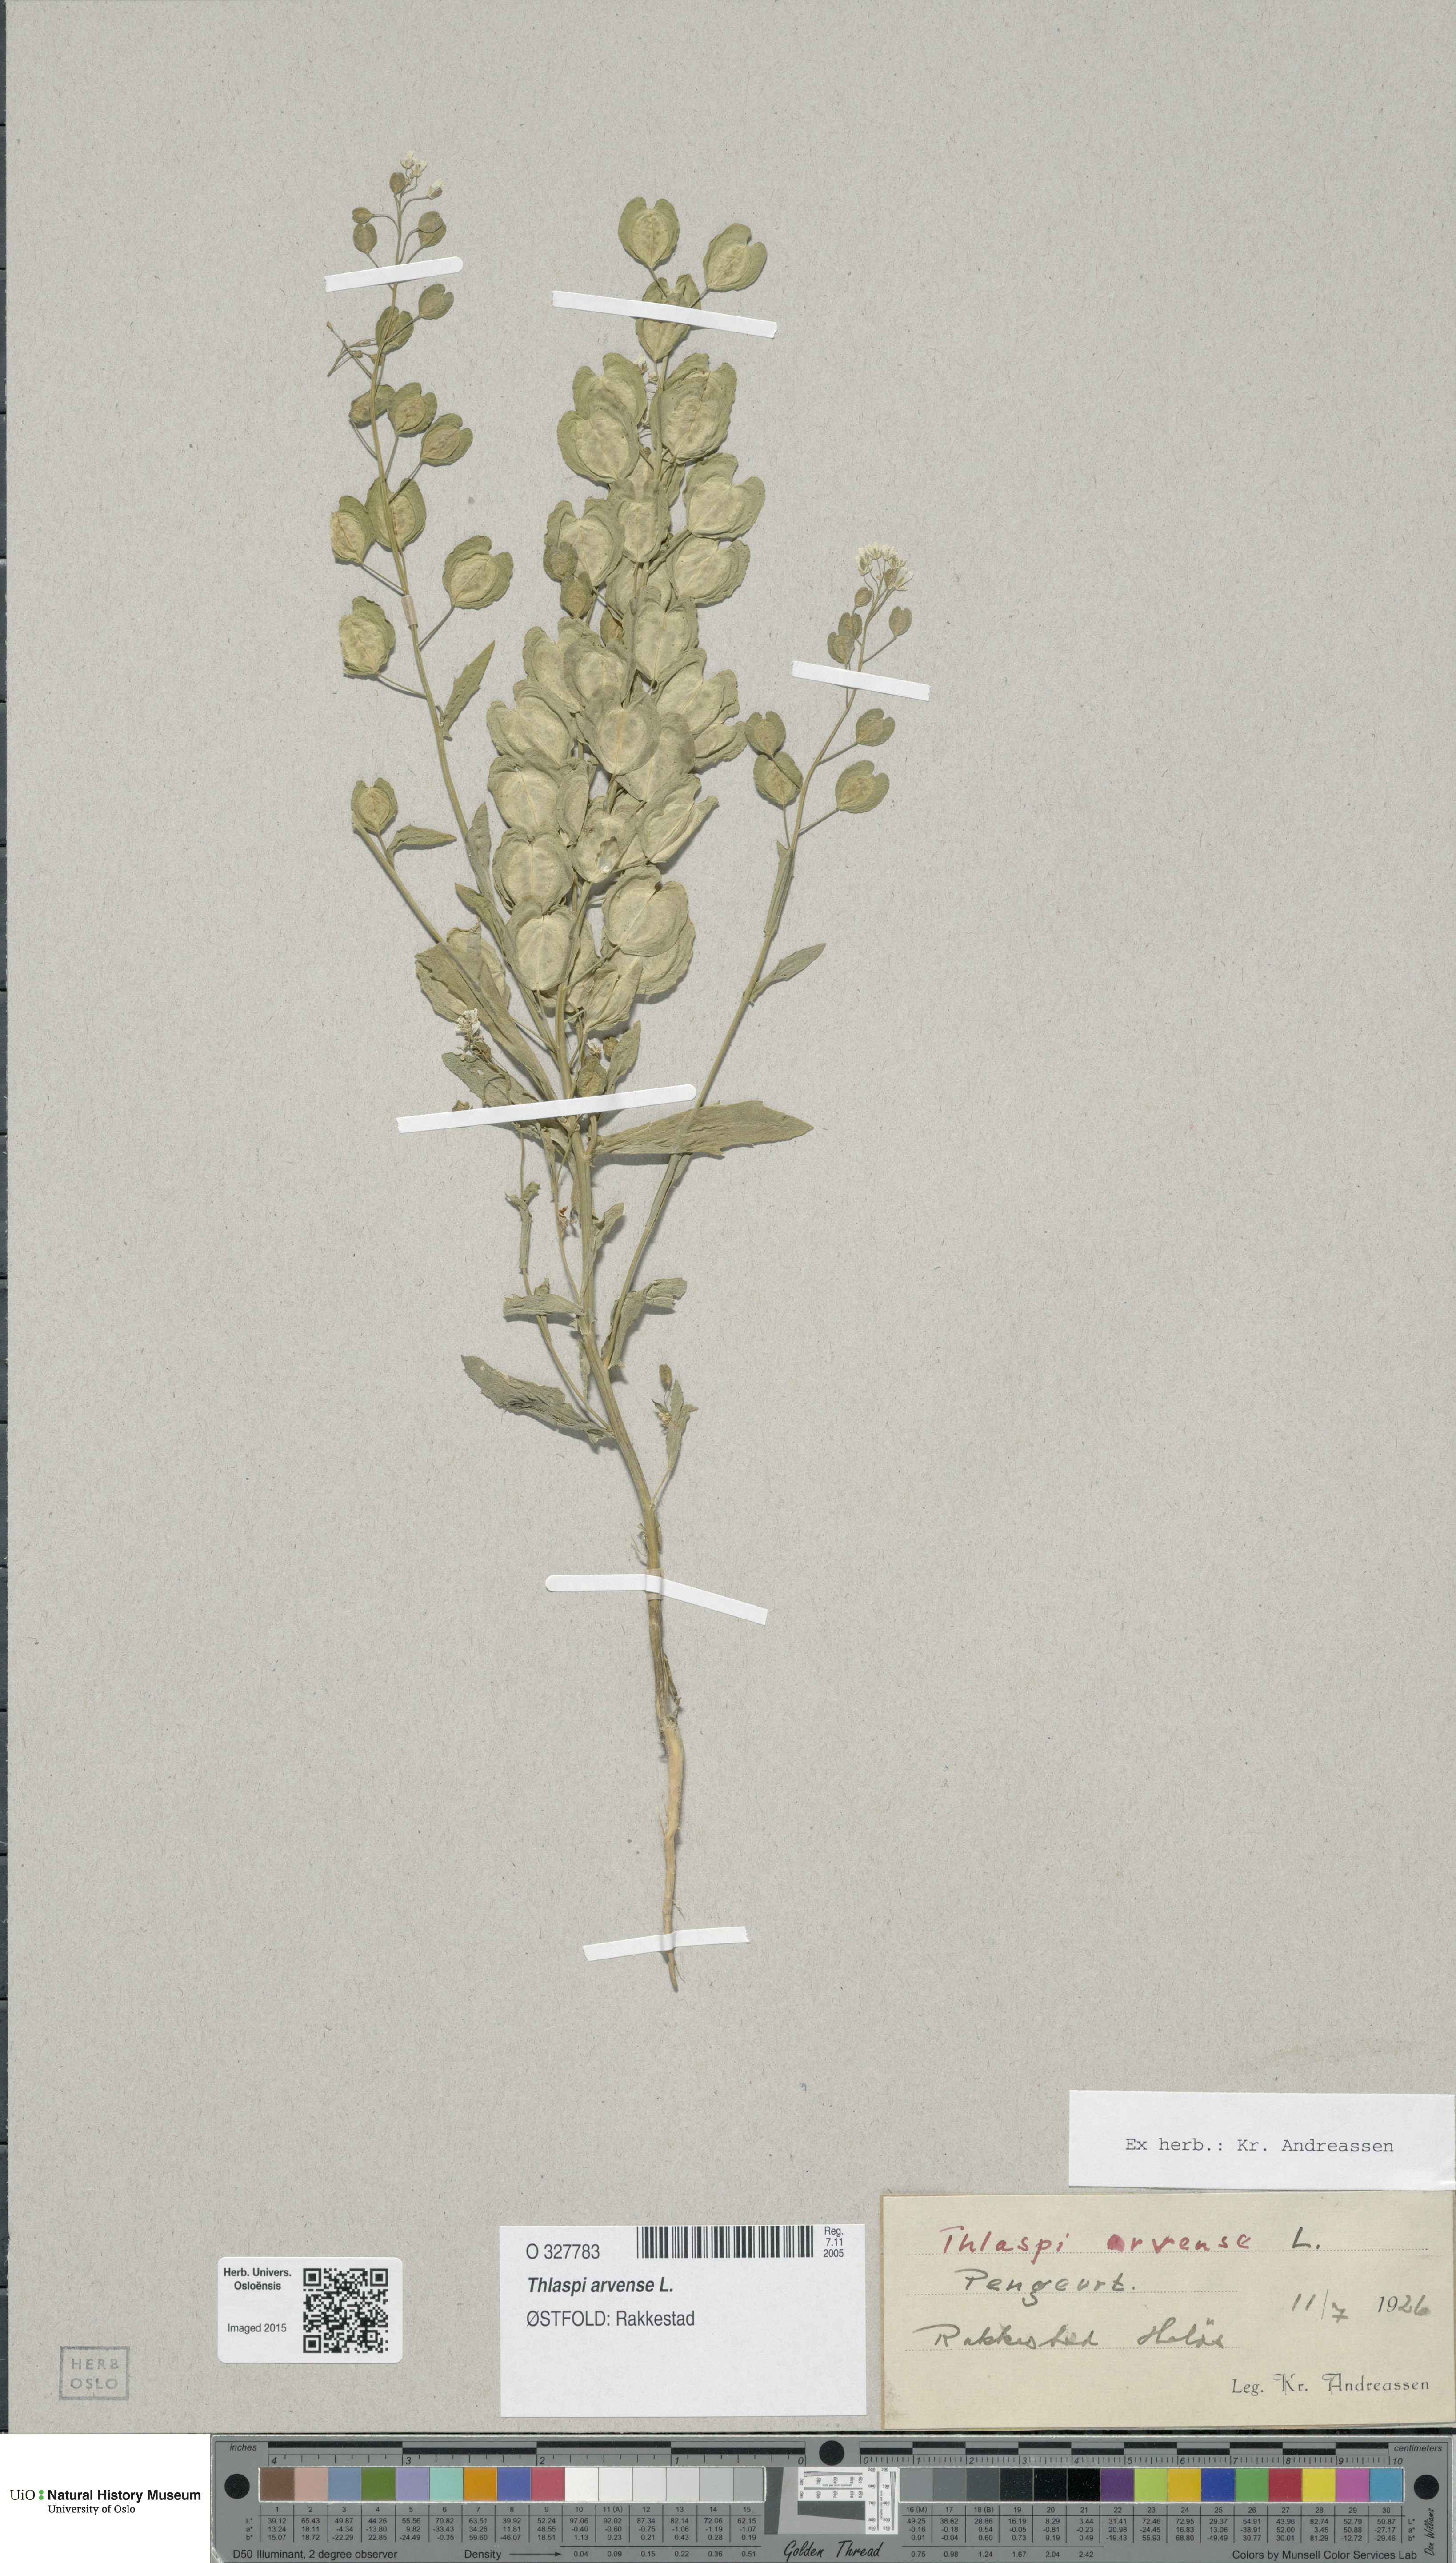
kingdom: Plantae
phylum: Tracheophyta
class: Magnoliopsida
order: Brassicales
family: Brassicaceae
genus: Thlaspi
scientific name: Thlaspi arvense
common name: Field pennycress
